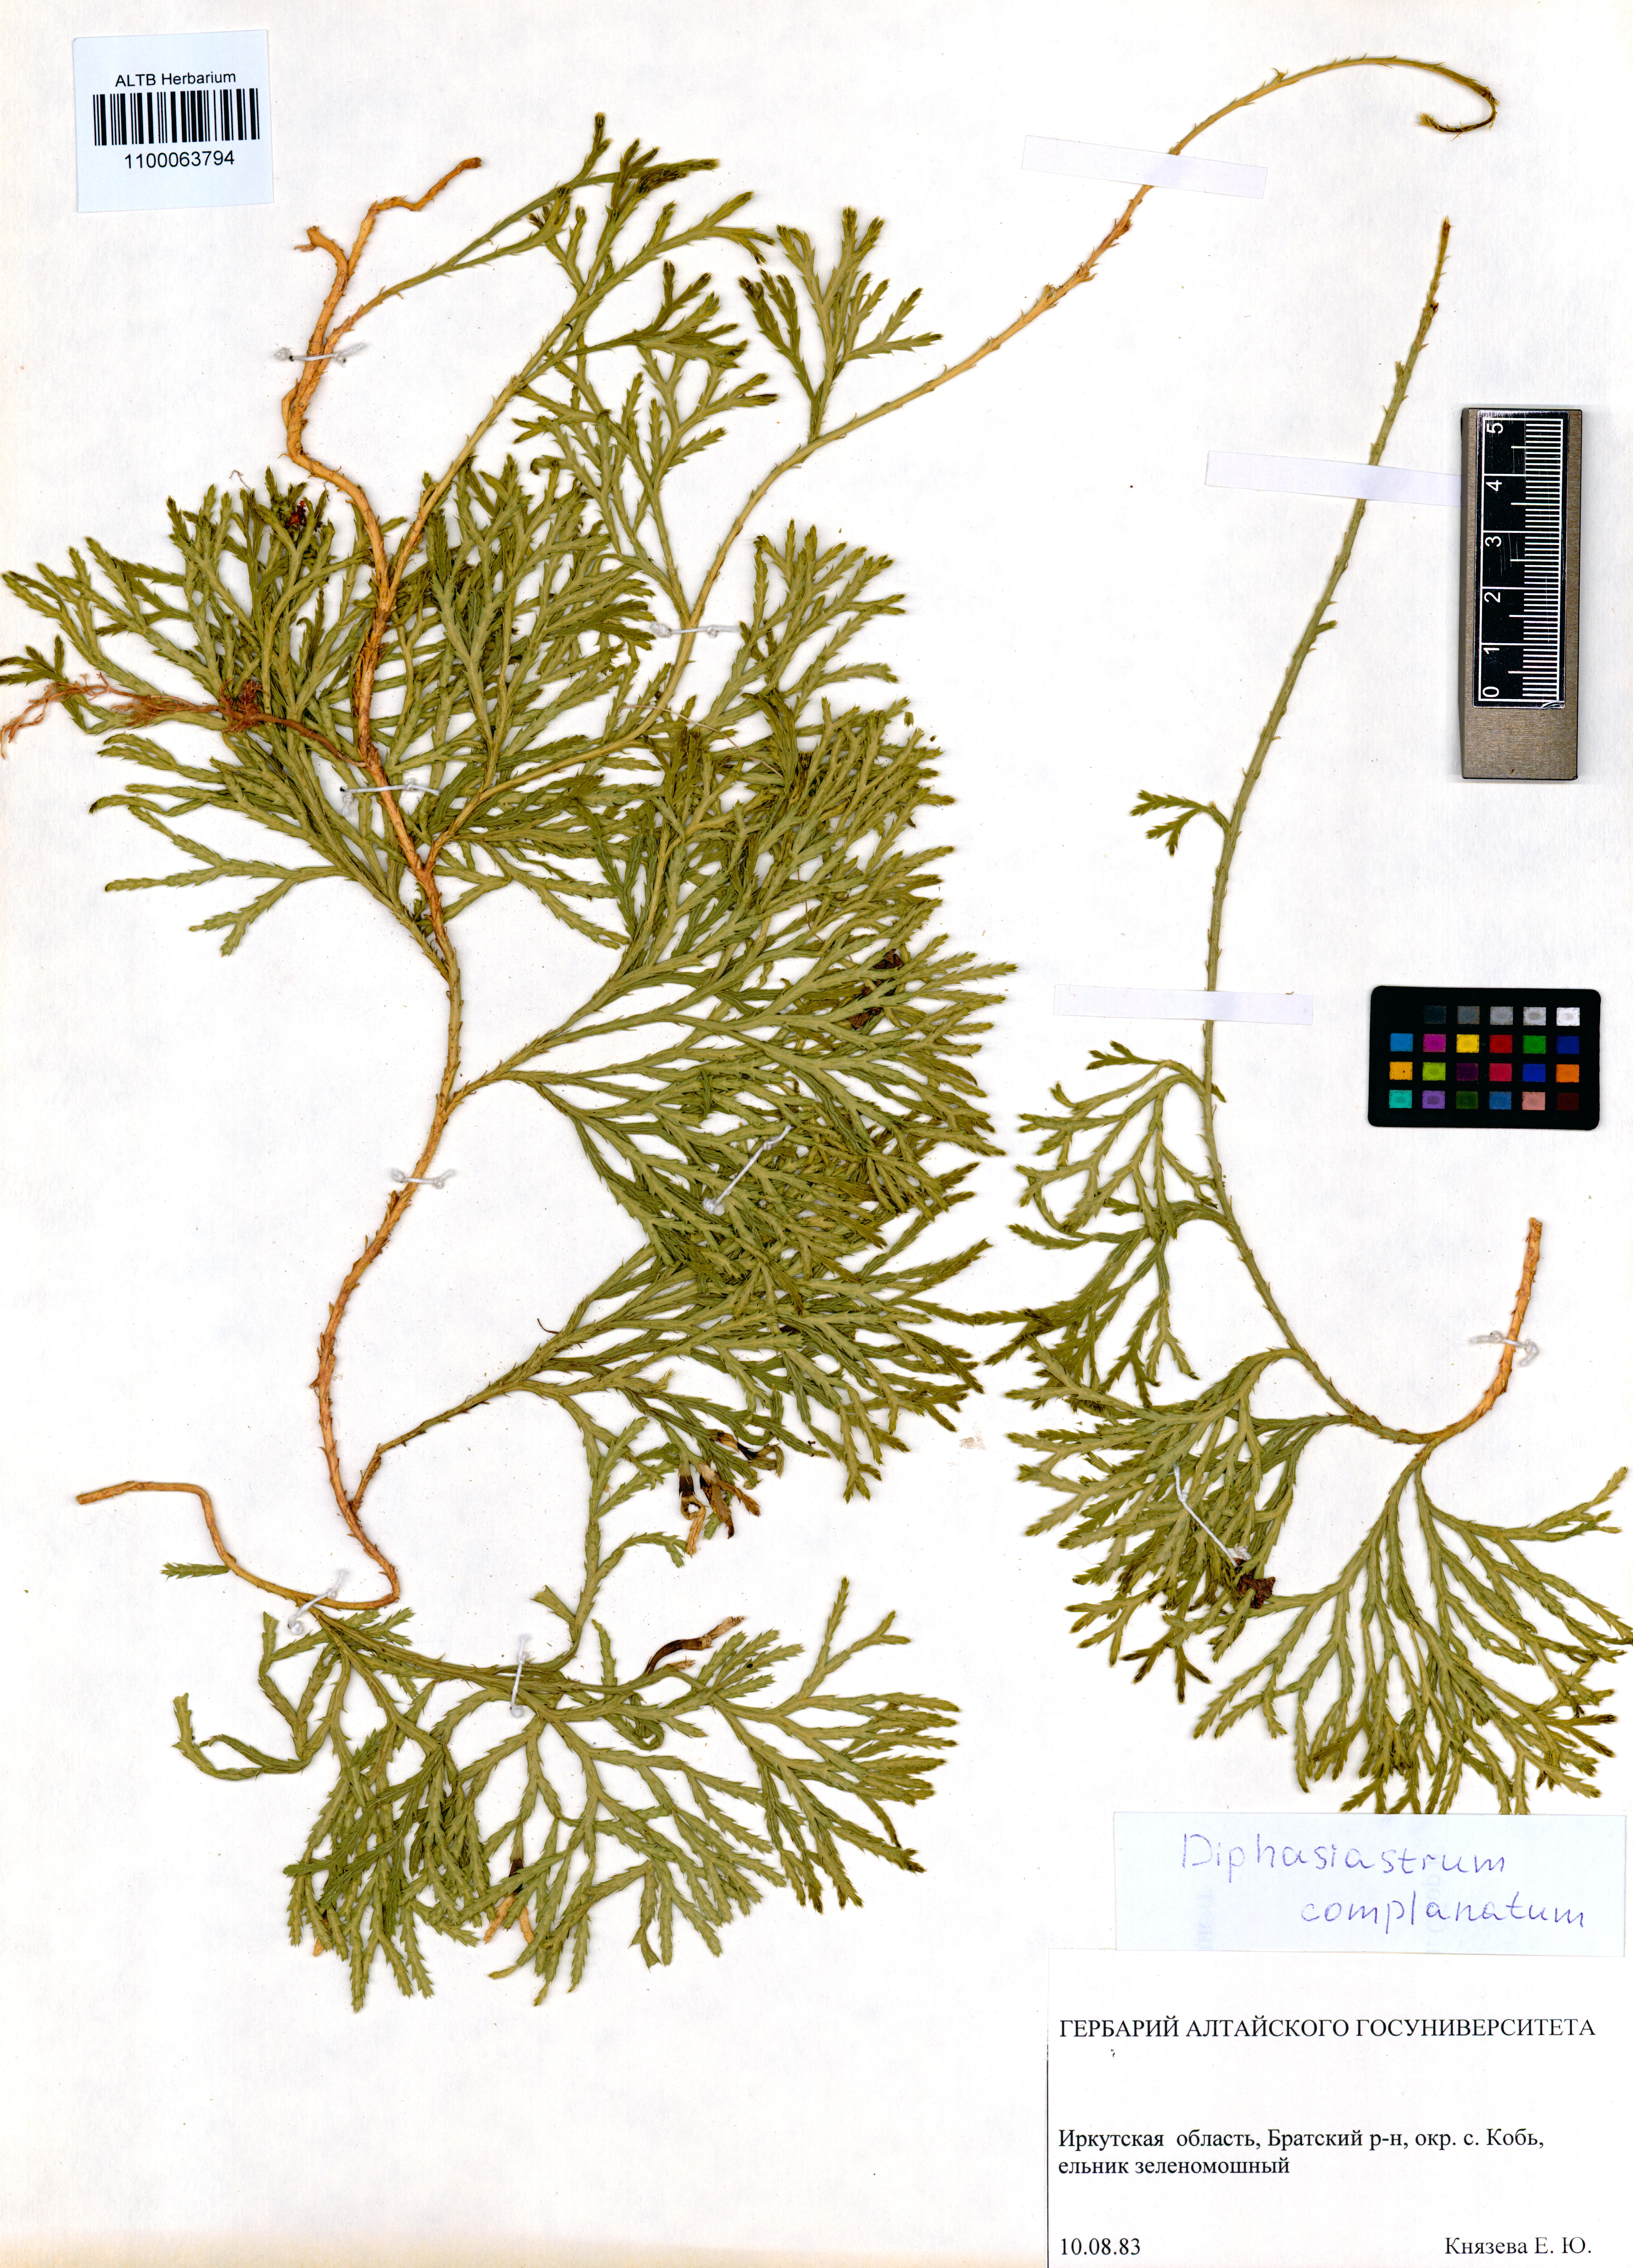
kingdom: Plantae
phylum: Tracheophyta
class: Lycopodiopsida
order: Lycopodiales
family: Lycopodiaceae
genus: Diphasiastrum
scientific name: Diphasiastrum complanatum
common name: Northern running-pine
